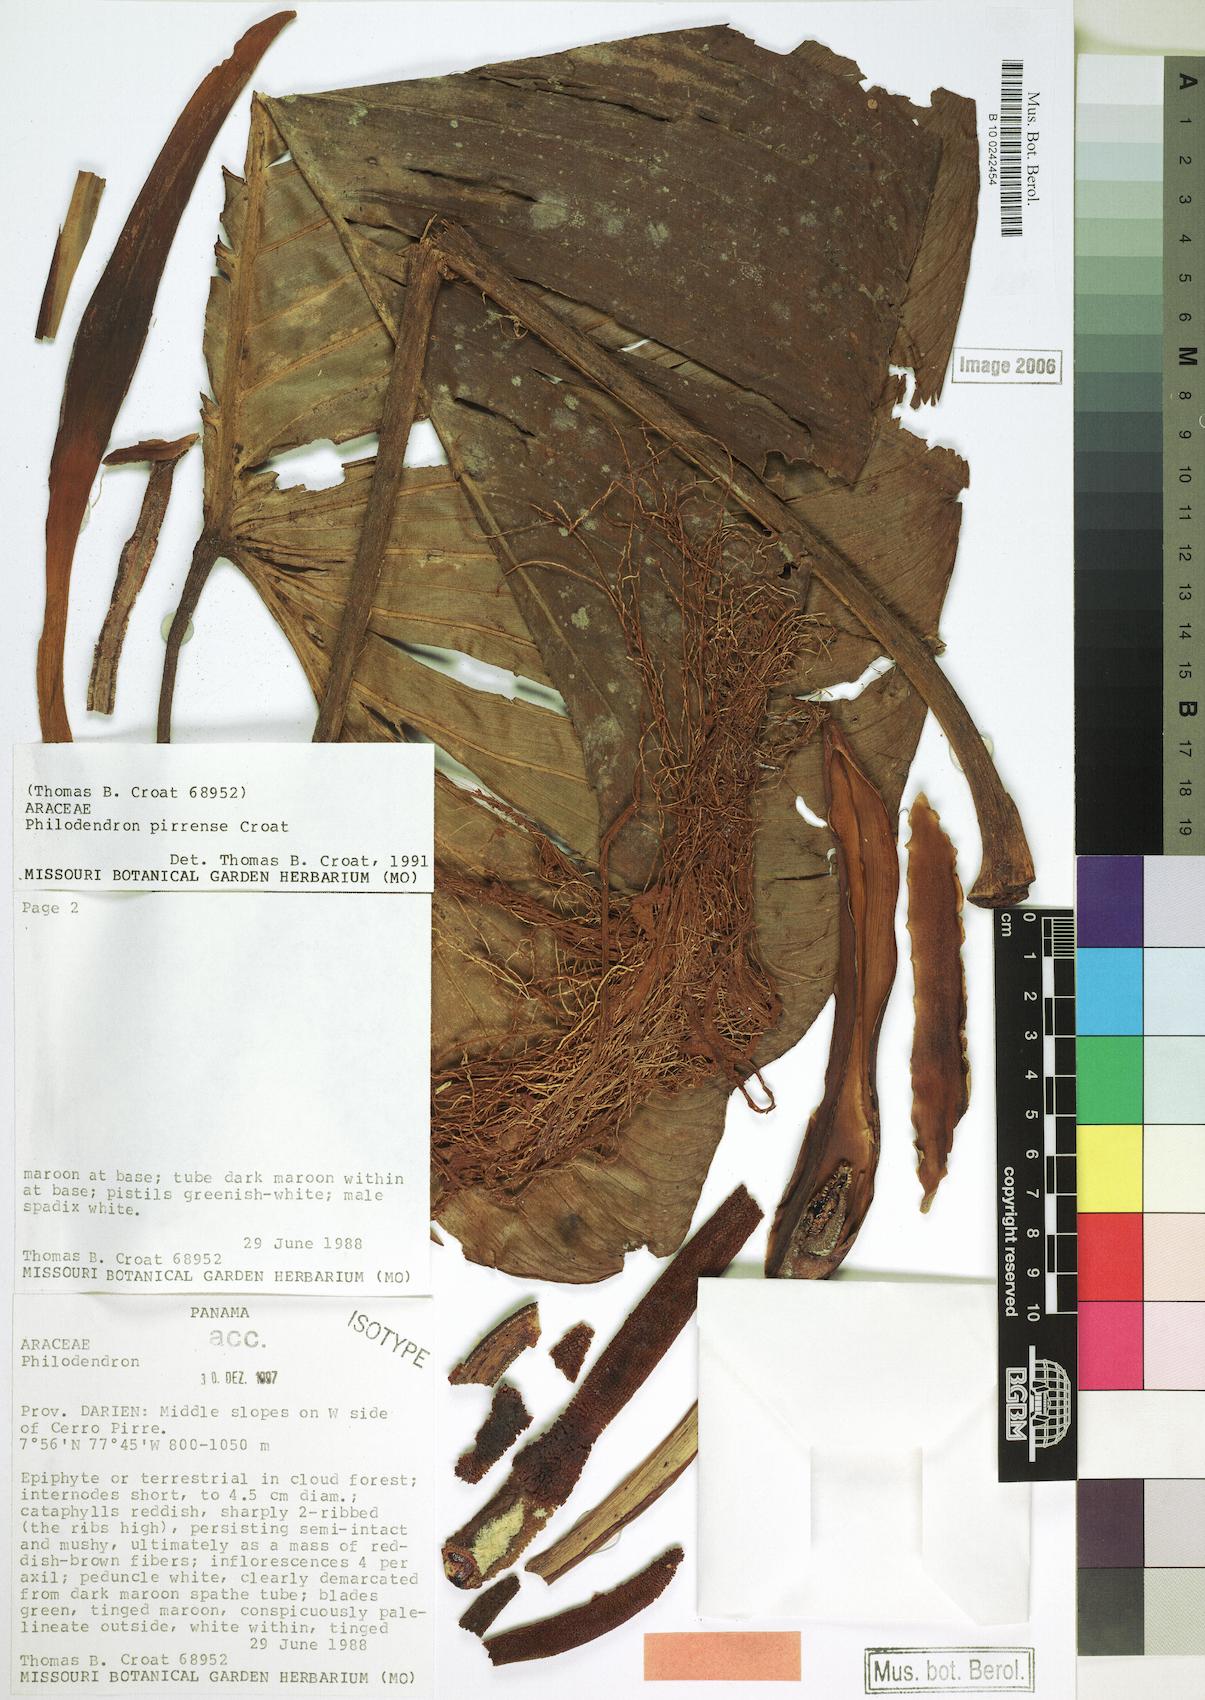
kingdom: Plantae
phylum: Tracheophyta
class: Liliopsida
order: Alismatales
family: Araceae
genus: Philodendron
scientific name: Philodendron pirrense
